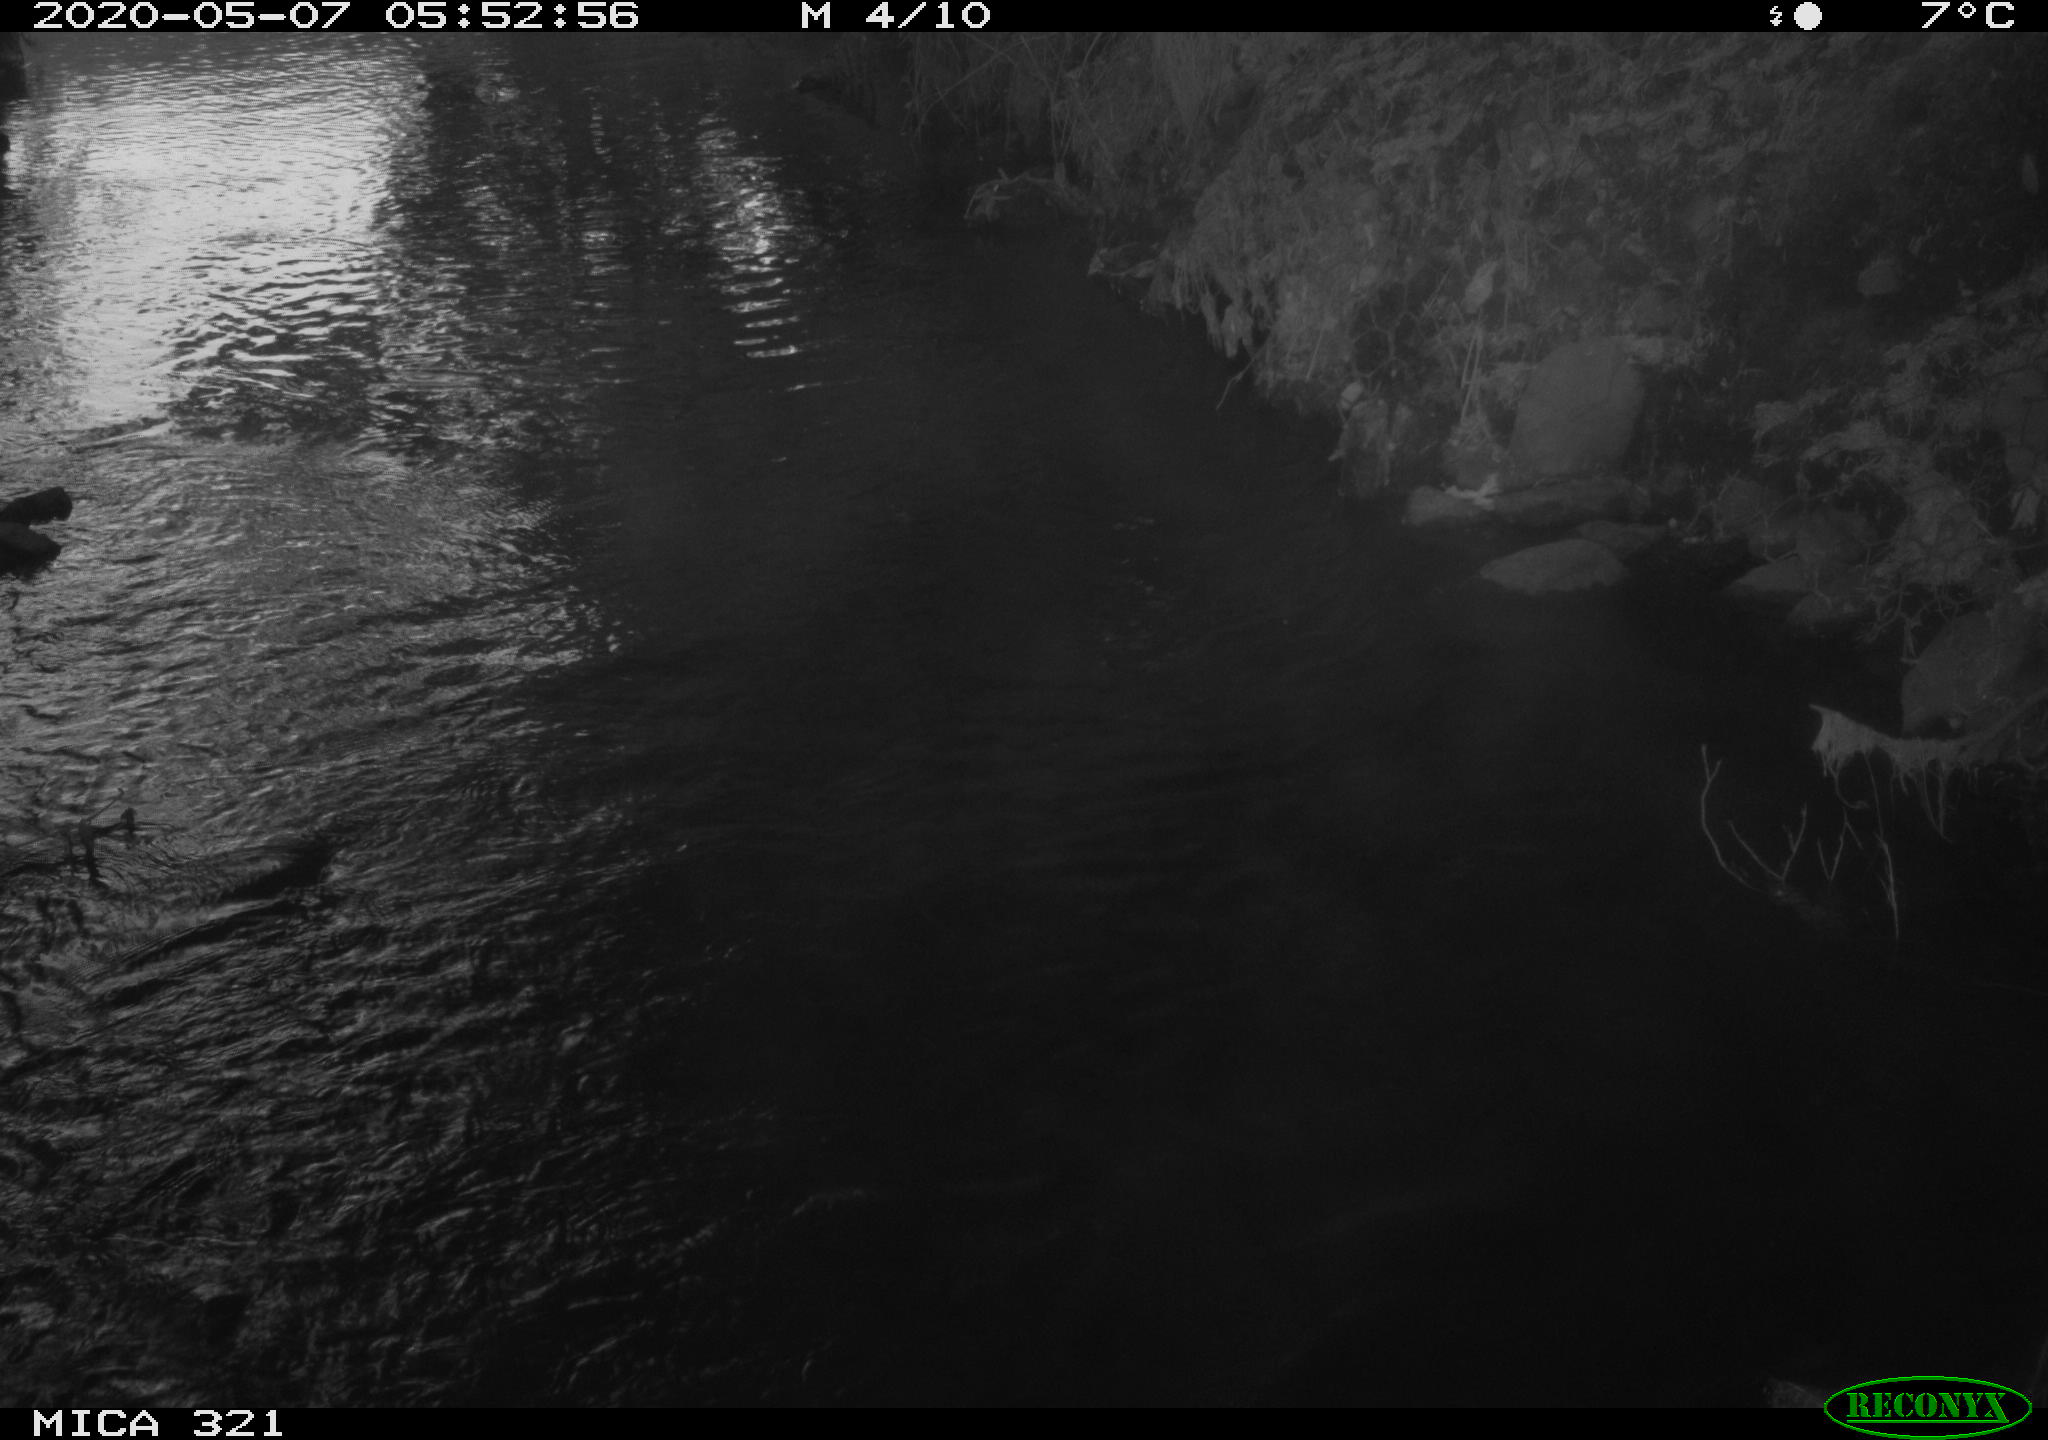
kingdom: Animalia
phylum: Chordata
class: Aves
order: Anseriformes
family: Anatidae
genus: Anas
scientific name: Anas platyrhynchos
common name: Mallard
